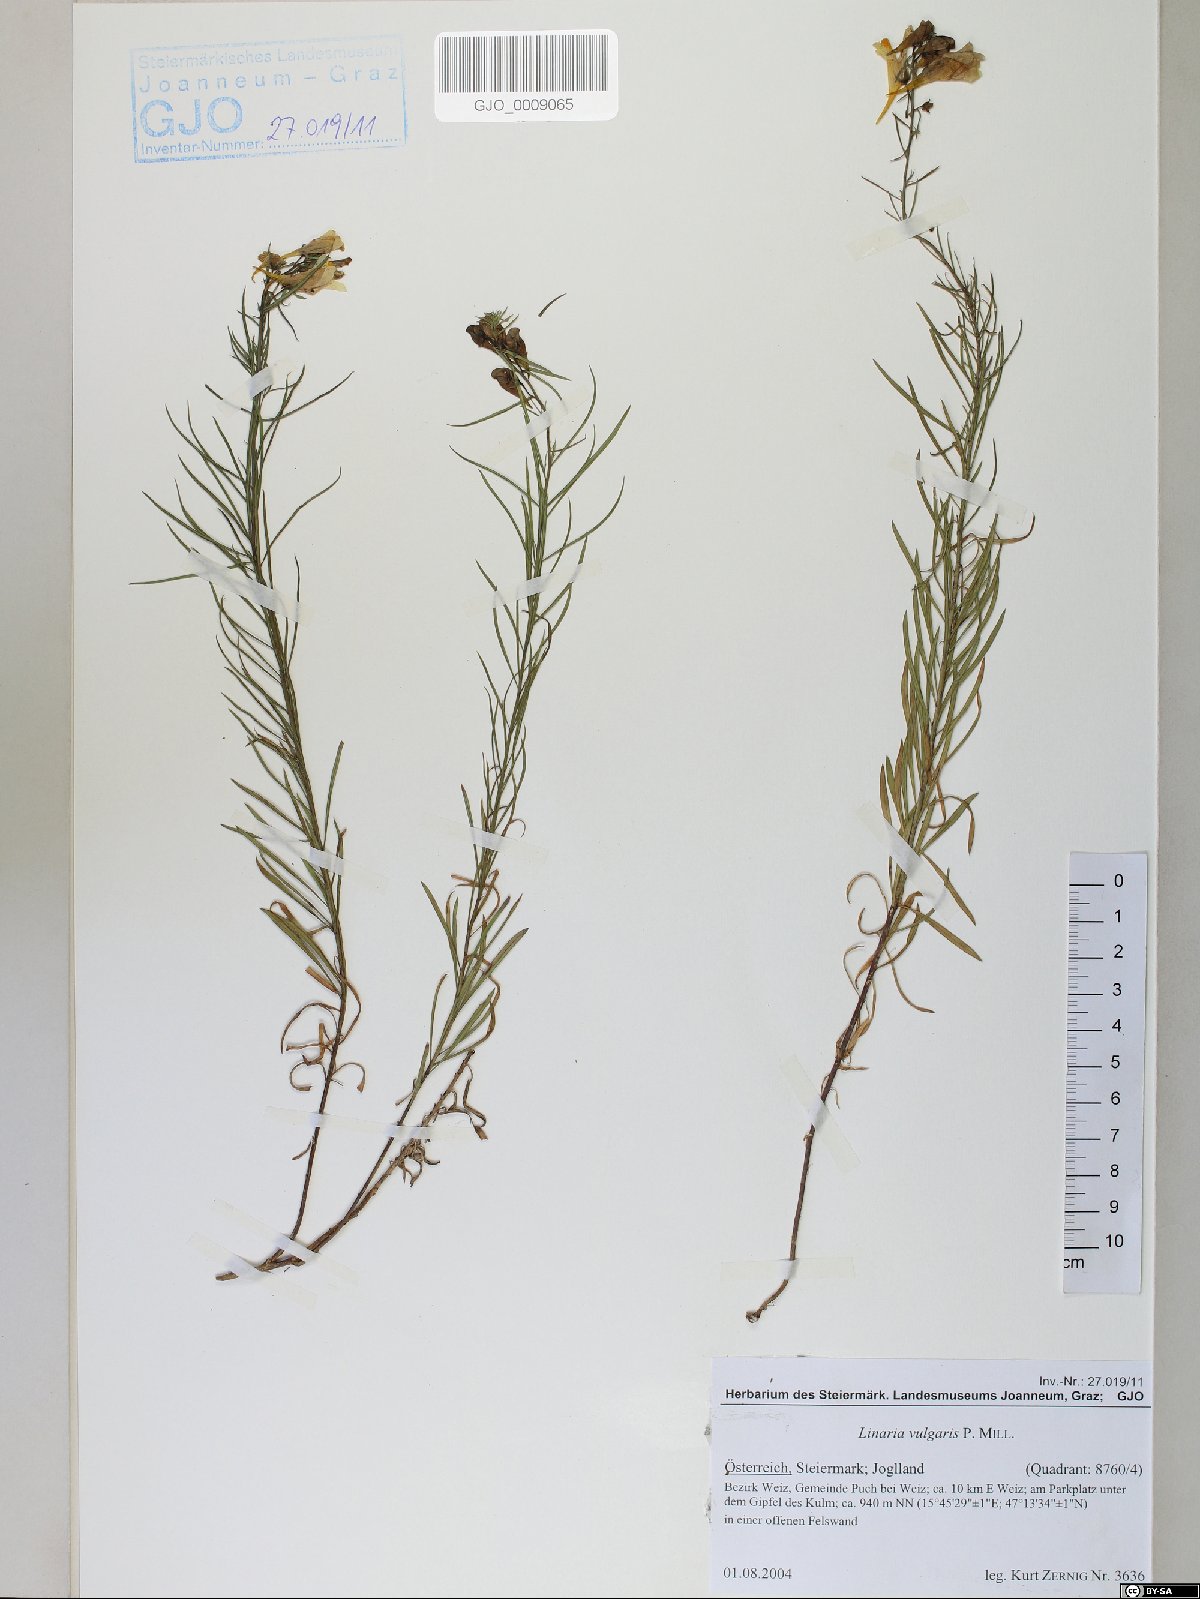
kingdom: Plantae
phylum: Tracheophyta
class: Magnoliopsida
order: Lamiales
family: Plantaginaceae
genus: Linaria
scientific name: Linaria vulgaris
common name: Butter and eggs
